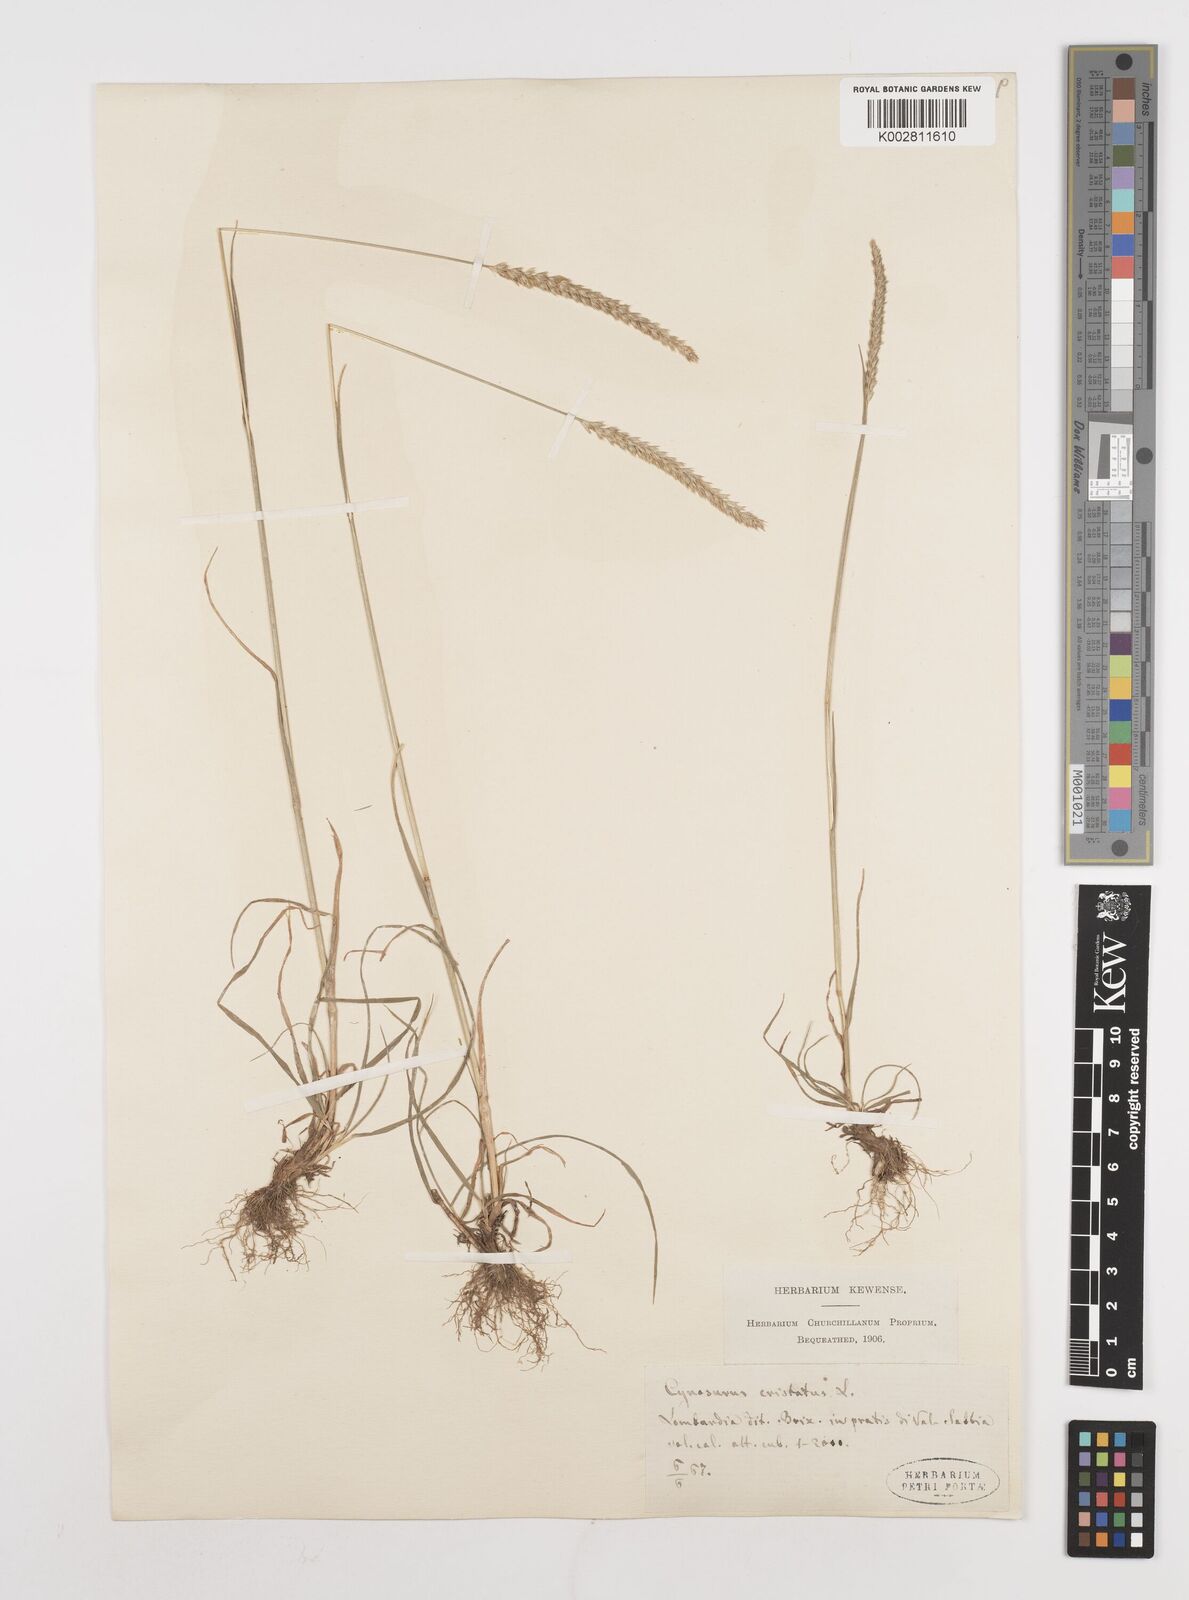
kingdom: Plantae
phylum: Tracheophyta
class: Liliopsida
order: Poales
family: Poaceae
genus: Cynosurus
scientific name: Cynosurus cristatus
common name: Crested dog's-tail
